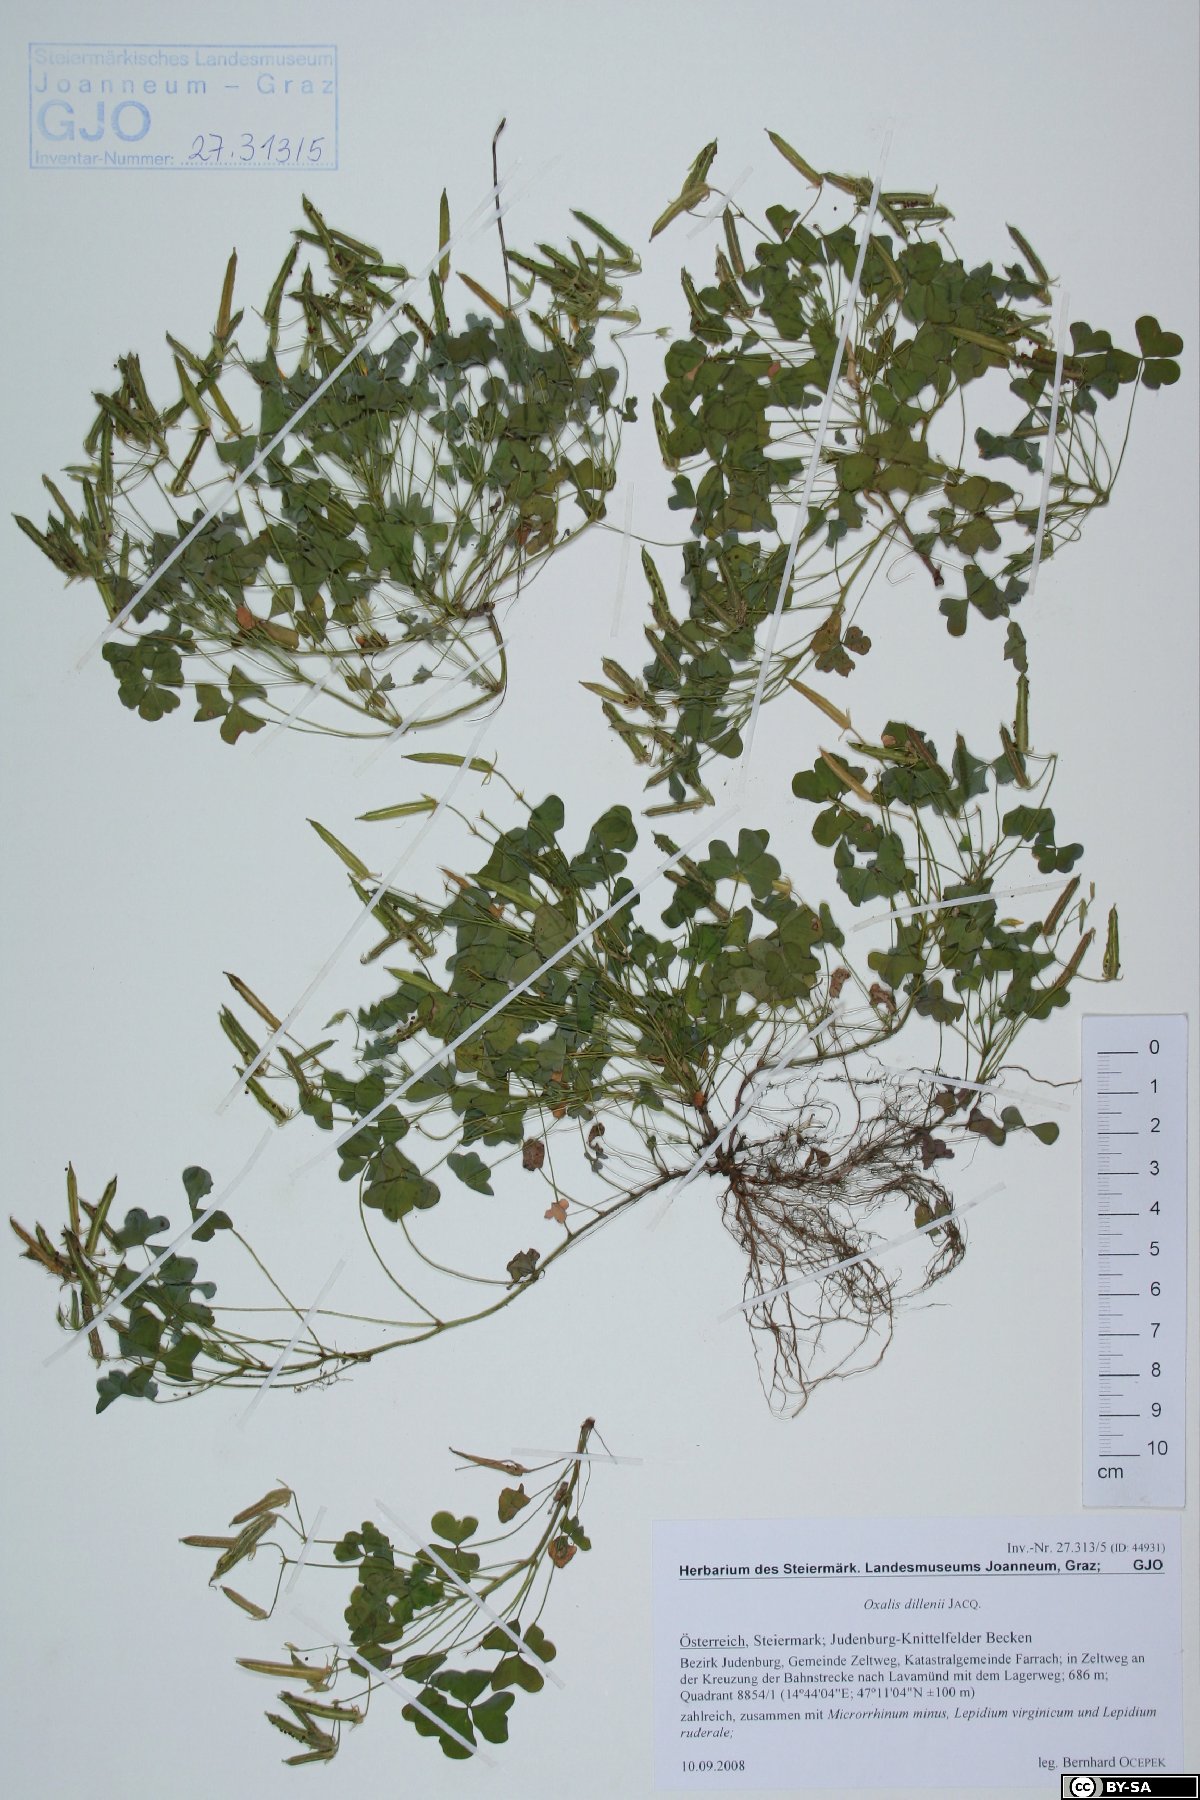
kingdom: Plantae
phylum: Tracheophyta
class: Magnoliopsida
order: Oxalidales
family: Oxalidaceae
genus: Oxalis
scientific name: Oxalis dillenii
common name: Sussex yellow-sorrel
